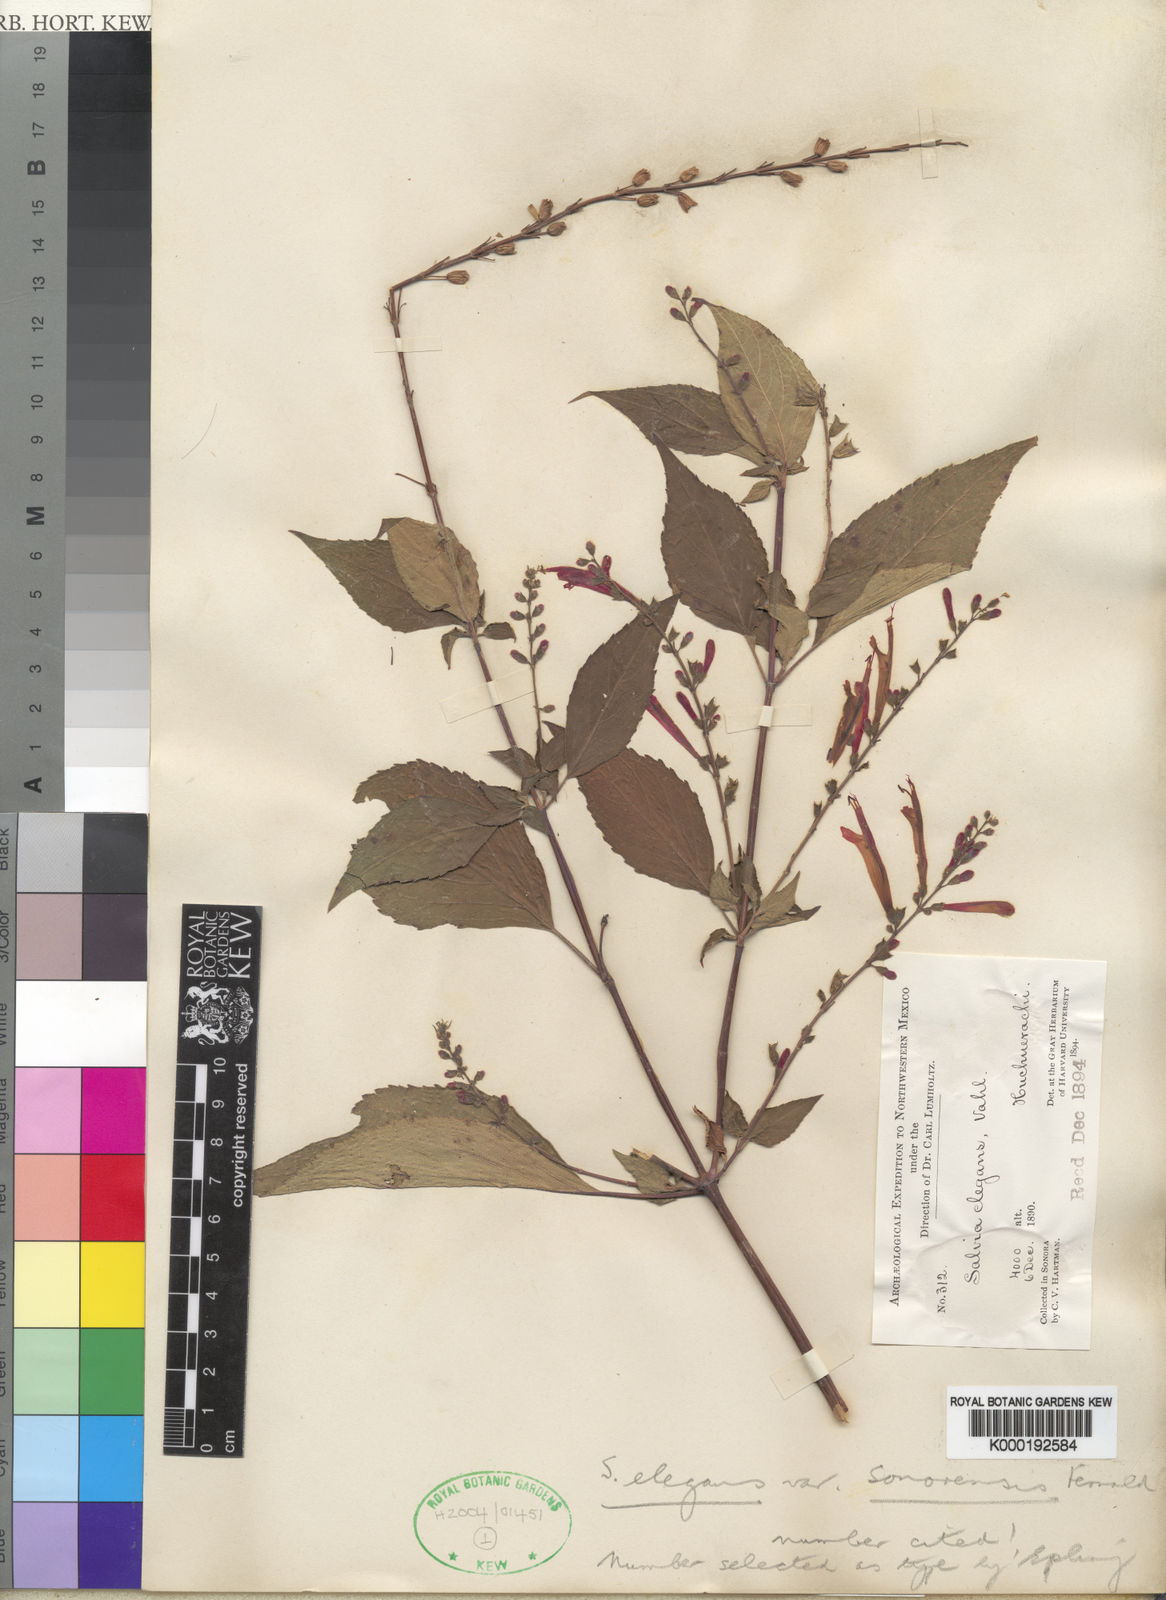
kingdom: Plantae
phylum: Tracheophyta
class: Magnoliopsida
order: Lamiales
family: Lamiaceae
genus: Salvia
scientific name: Salvia
